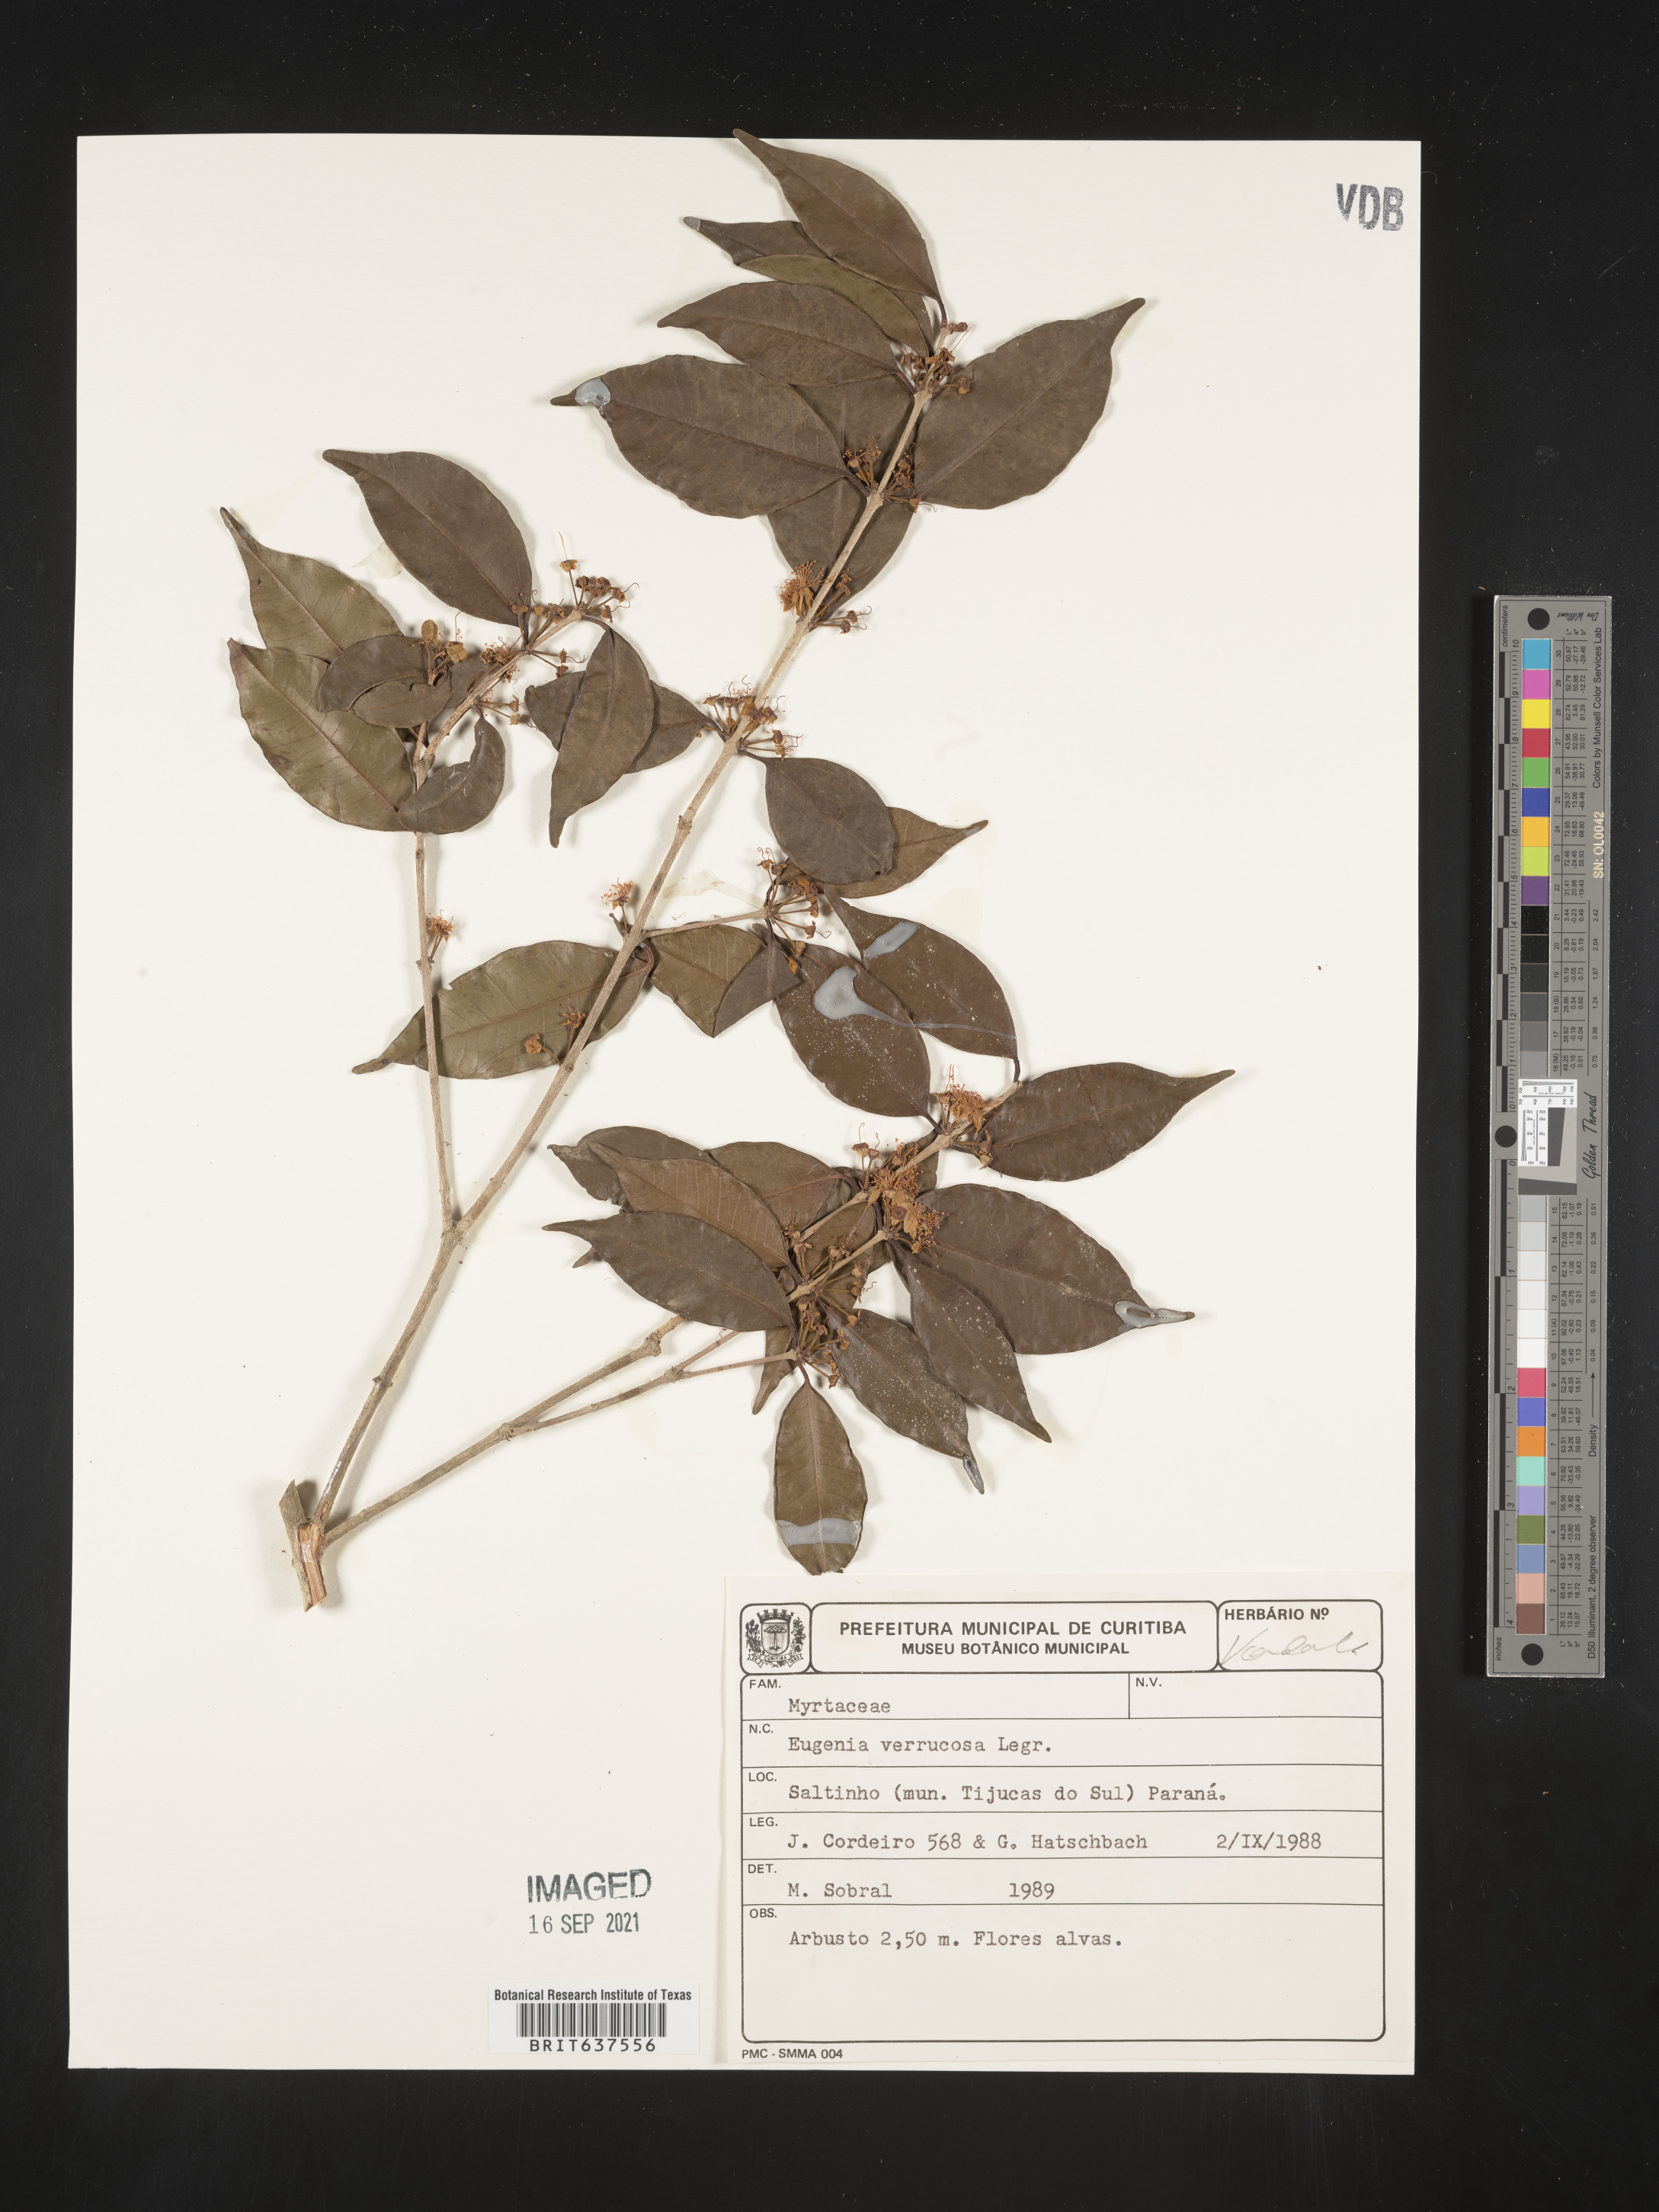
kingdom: Plantae
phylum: Tracheophyta
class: Magnoliopsida
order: Myrtales
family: Myrtaceae
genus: Eugenia
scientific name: Eugenia
